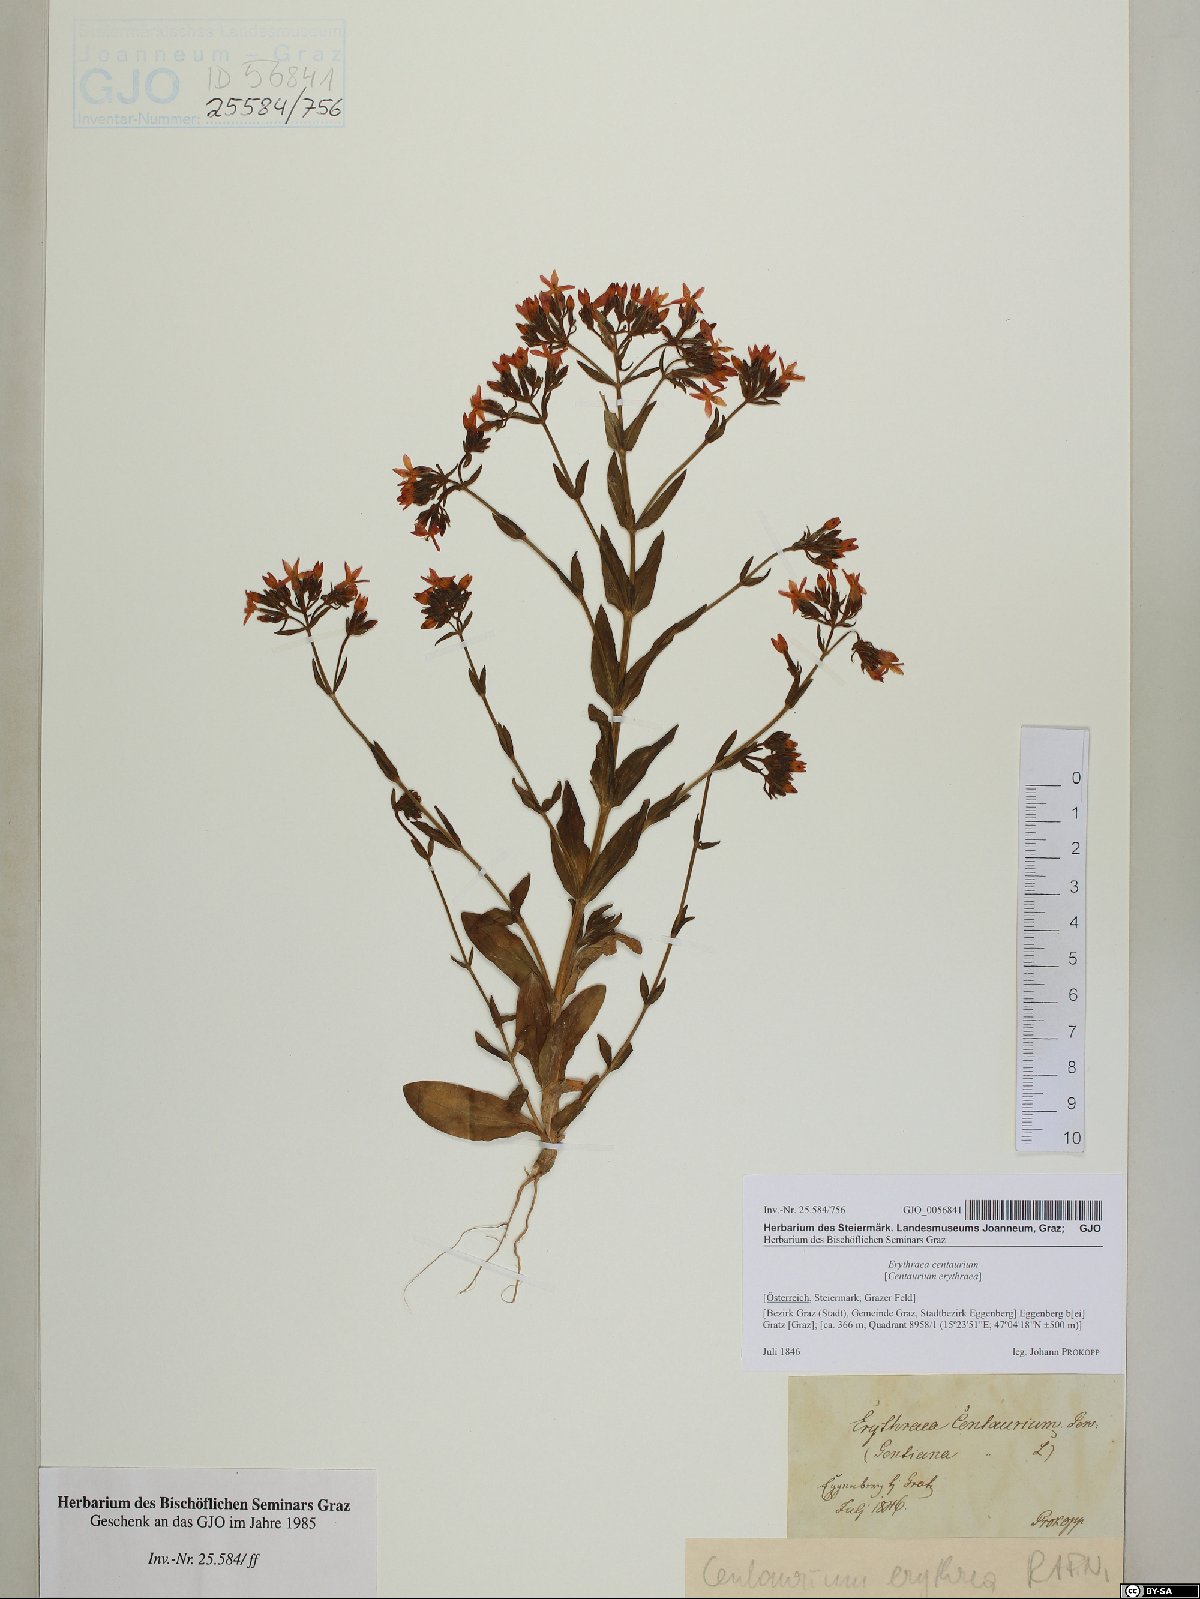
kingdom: Plantae
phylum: Tracheophyta
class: Magnoliopsida
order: Gentianales
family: Gentianaceae
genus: Centaurium
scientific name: Centaurium erythraea
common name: Common centaury
